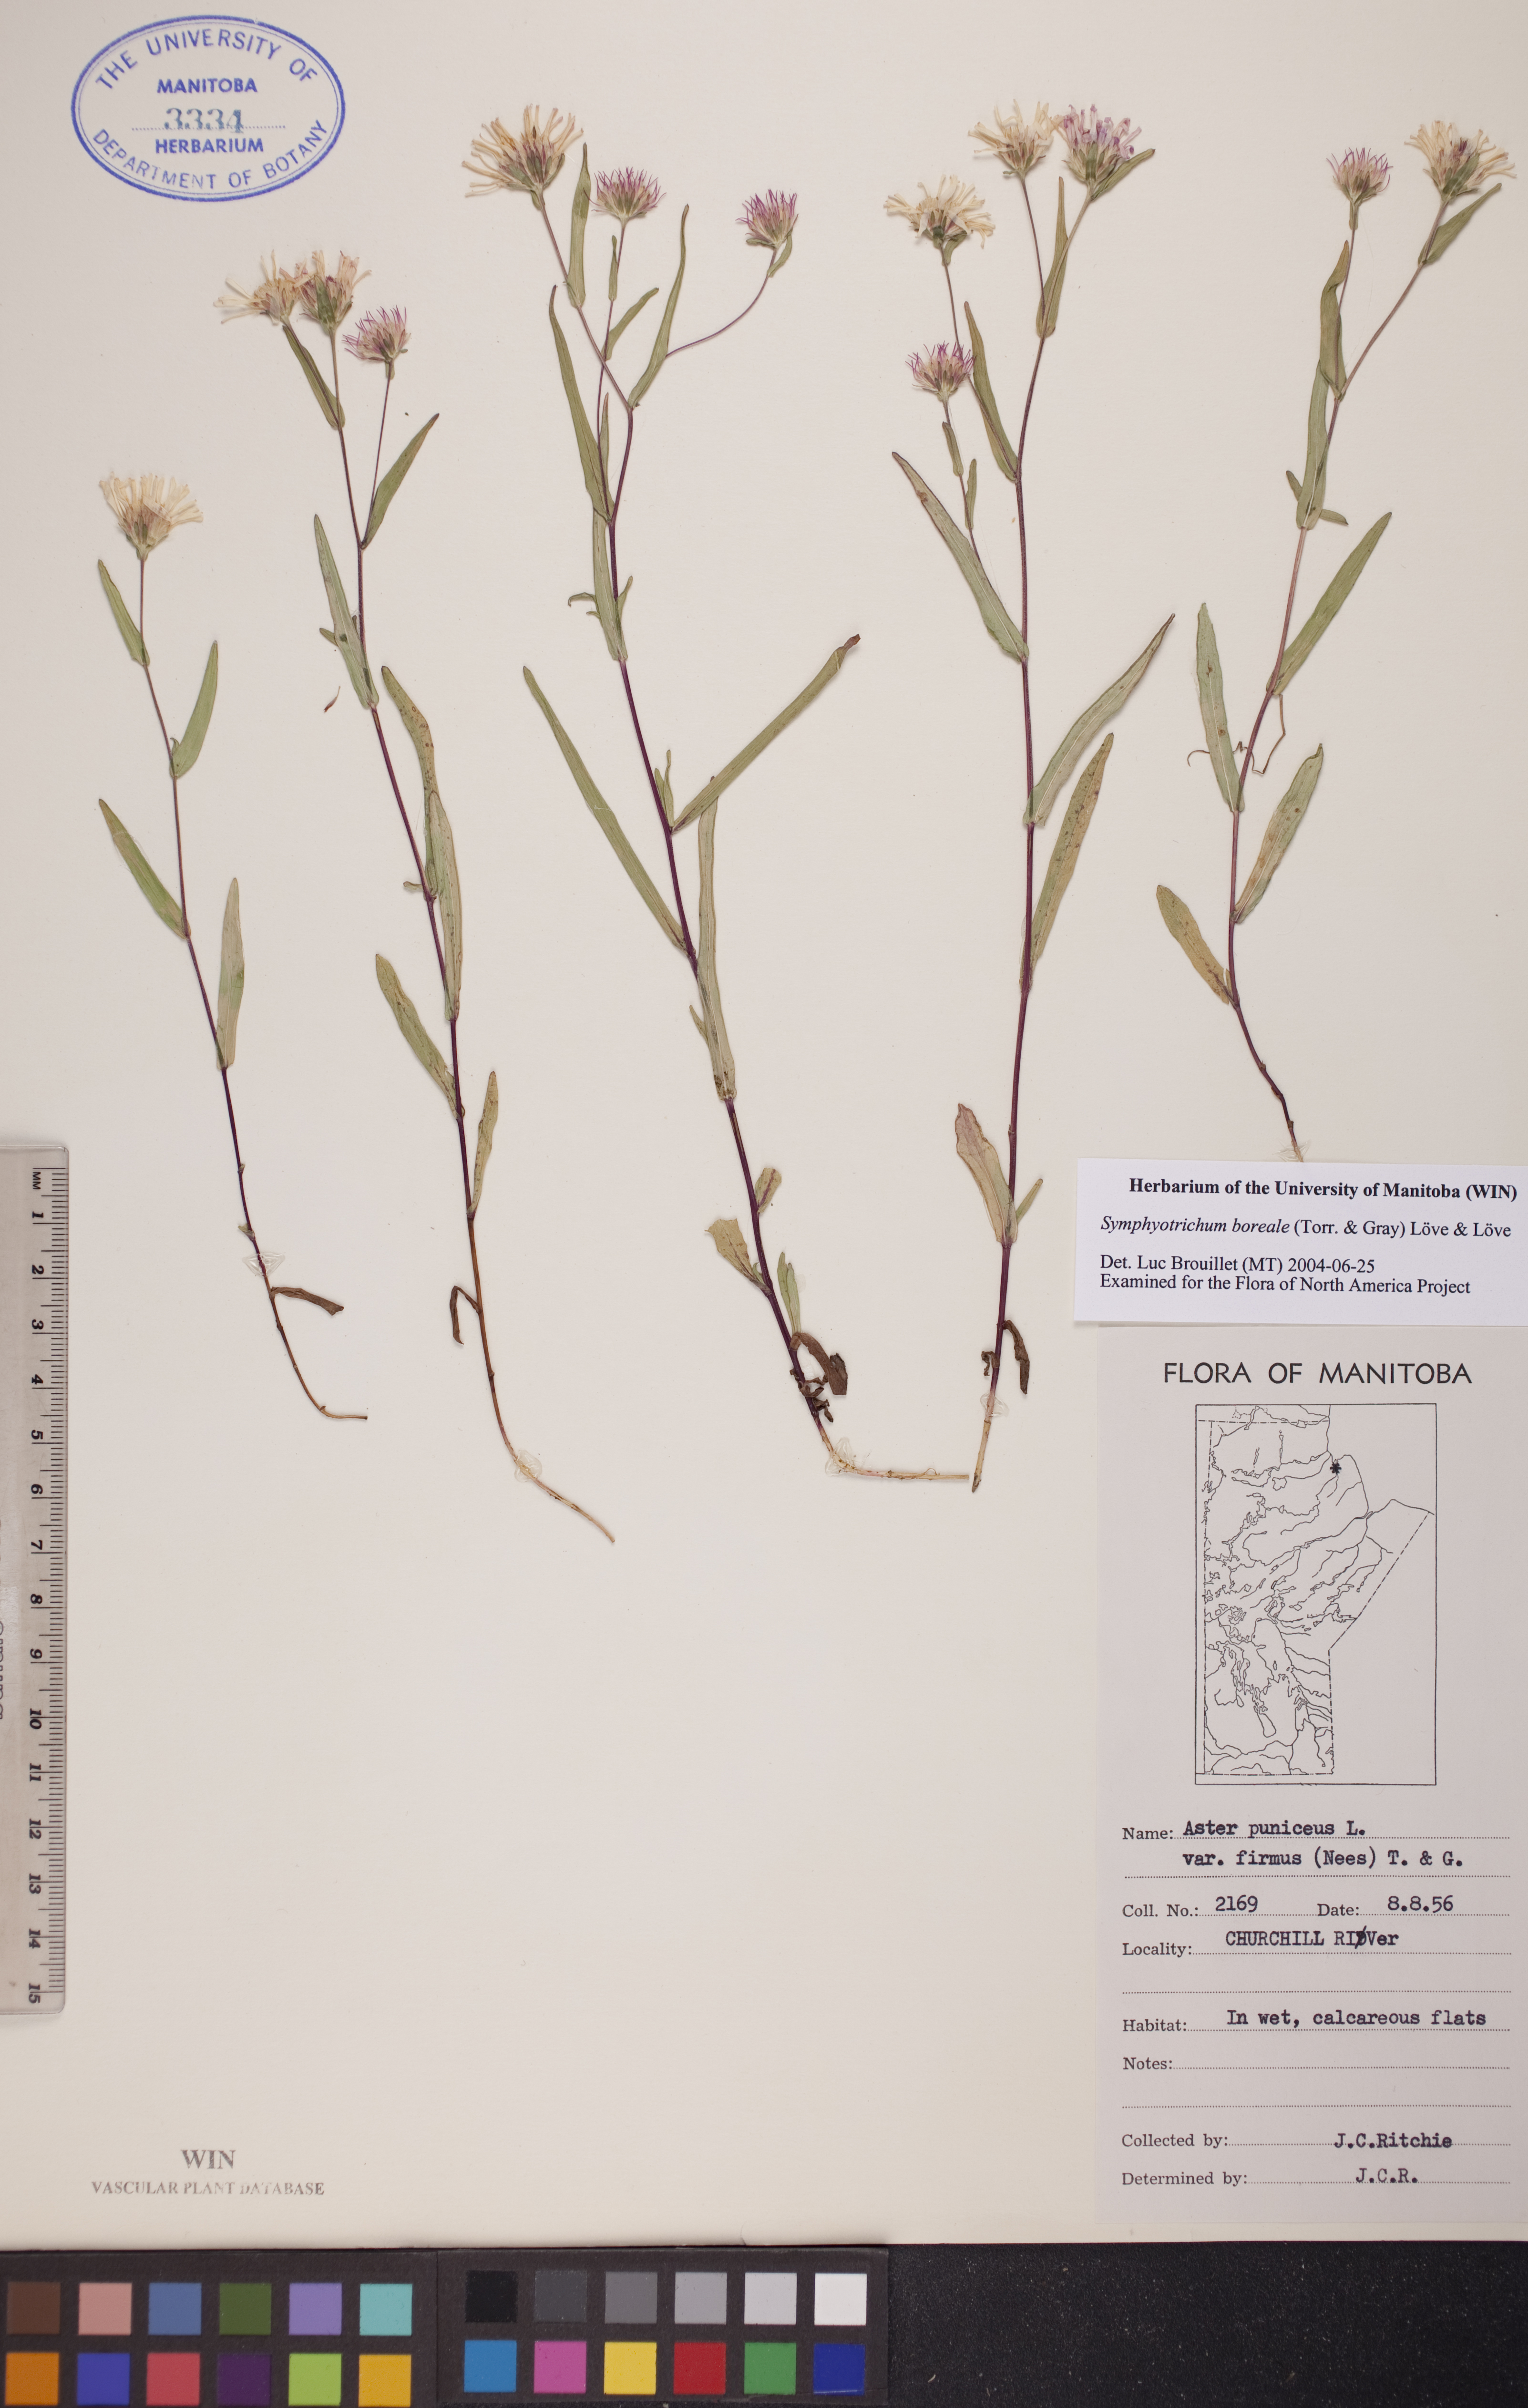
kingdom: Plantae
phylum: Tracheophyta
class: Magnoliopsida
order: Asterales
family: Asteraceae
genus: Symphyotrichum
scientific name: Symphyotrichum boreale
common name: Northern bog aster
